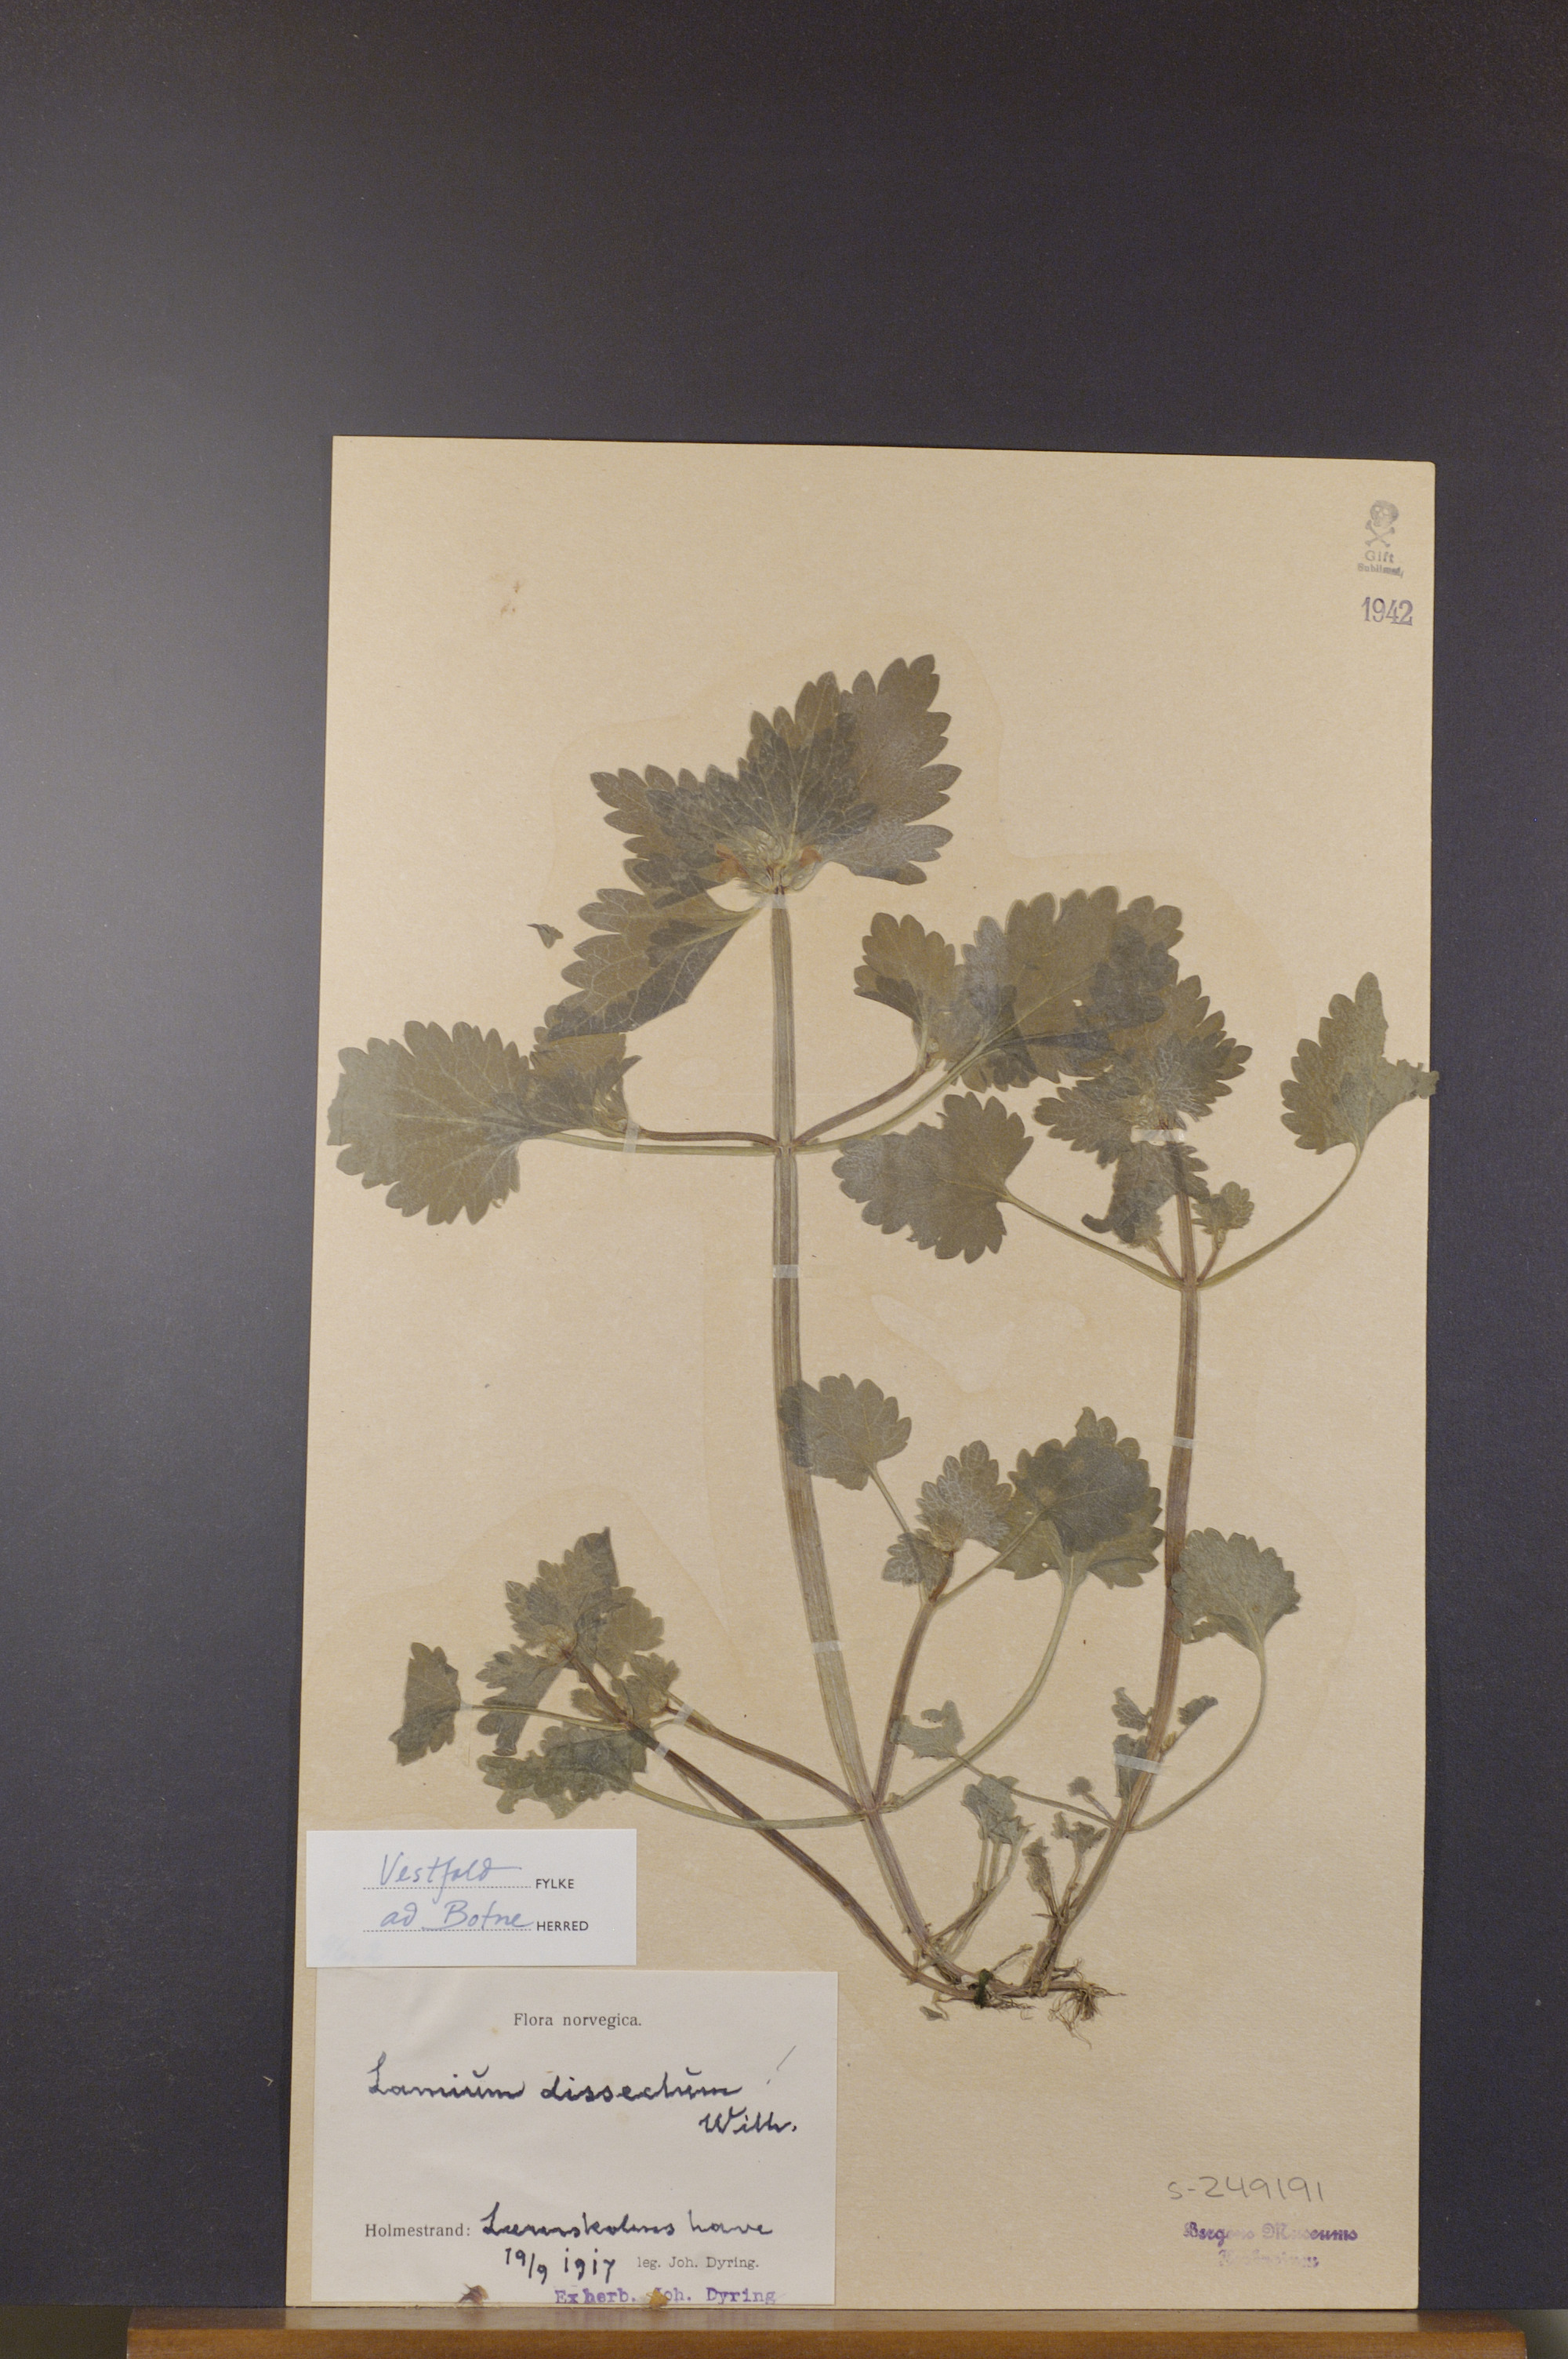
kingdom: Plantae
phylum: Tracheophyta
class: Magnoliopsida
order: Lamiales
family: Lamiaceae
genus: Lamium
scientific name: Lamium hybridum
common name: Cut-leaved dead-nettle
